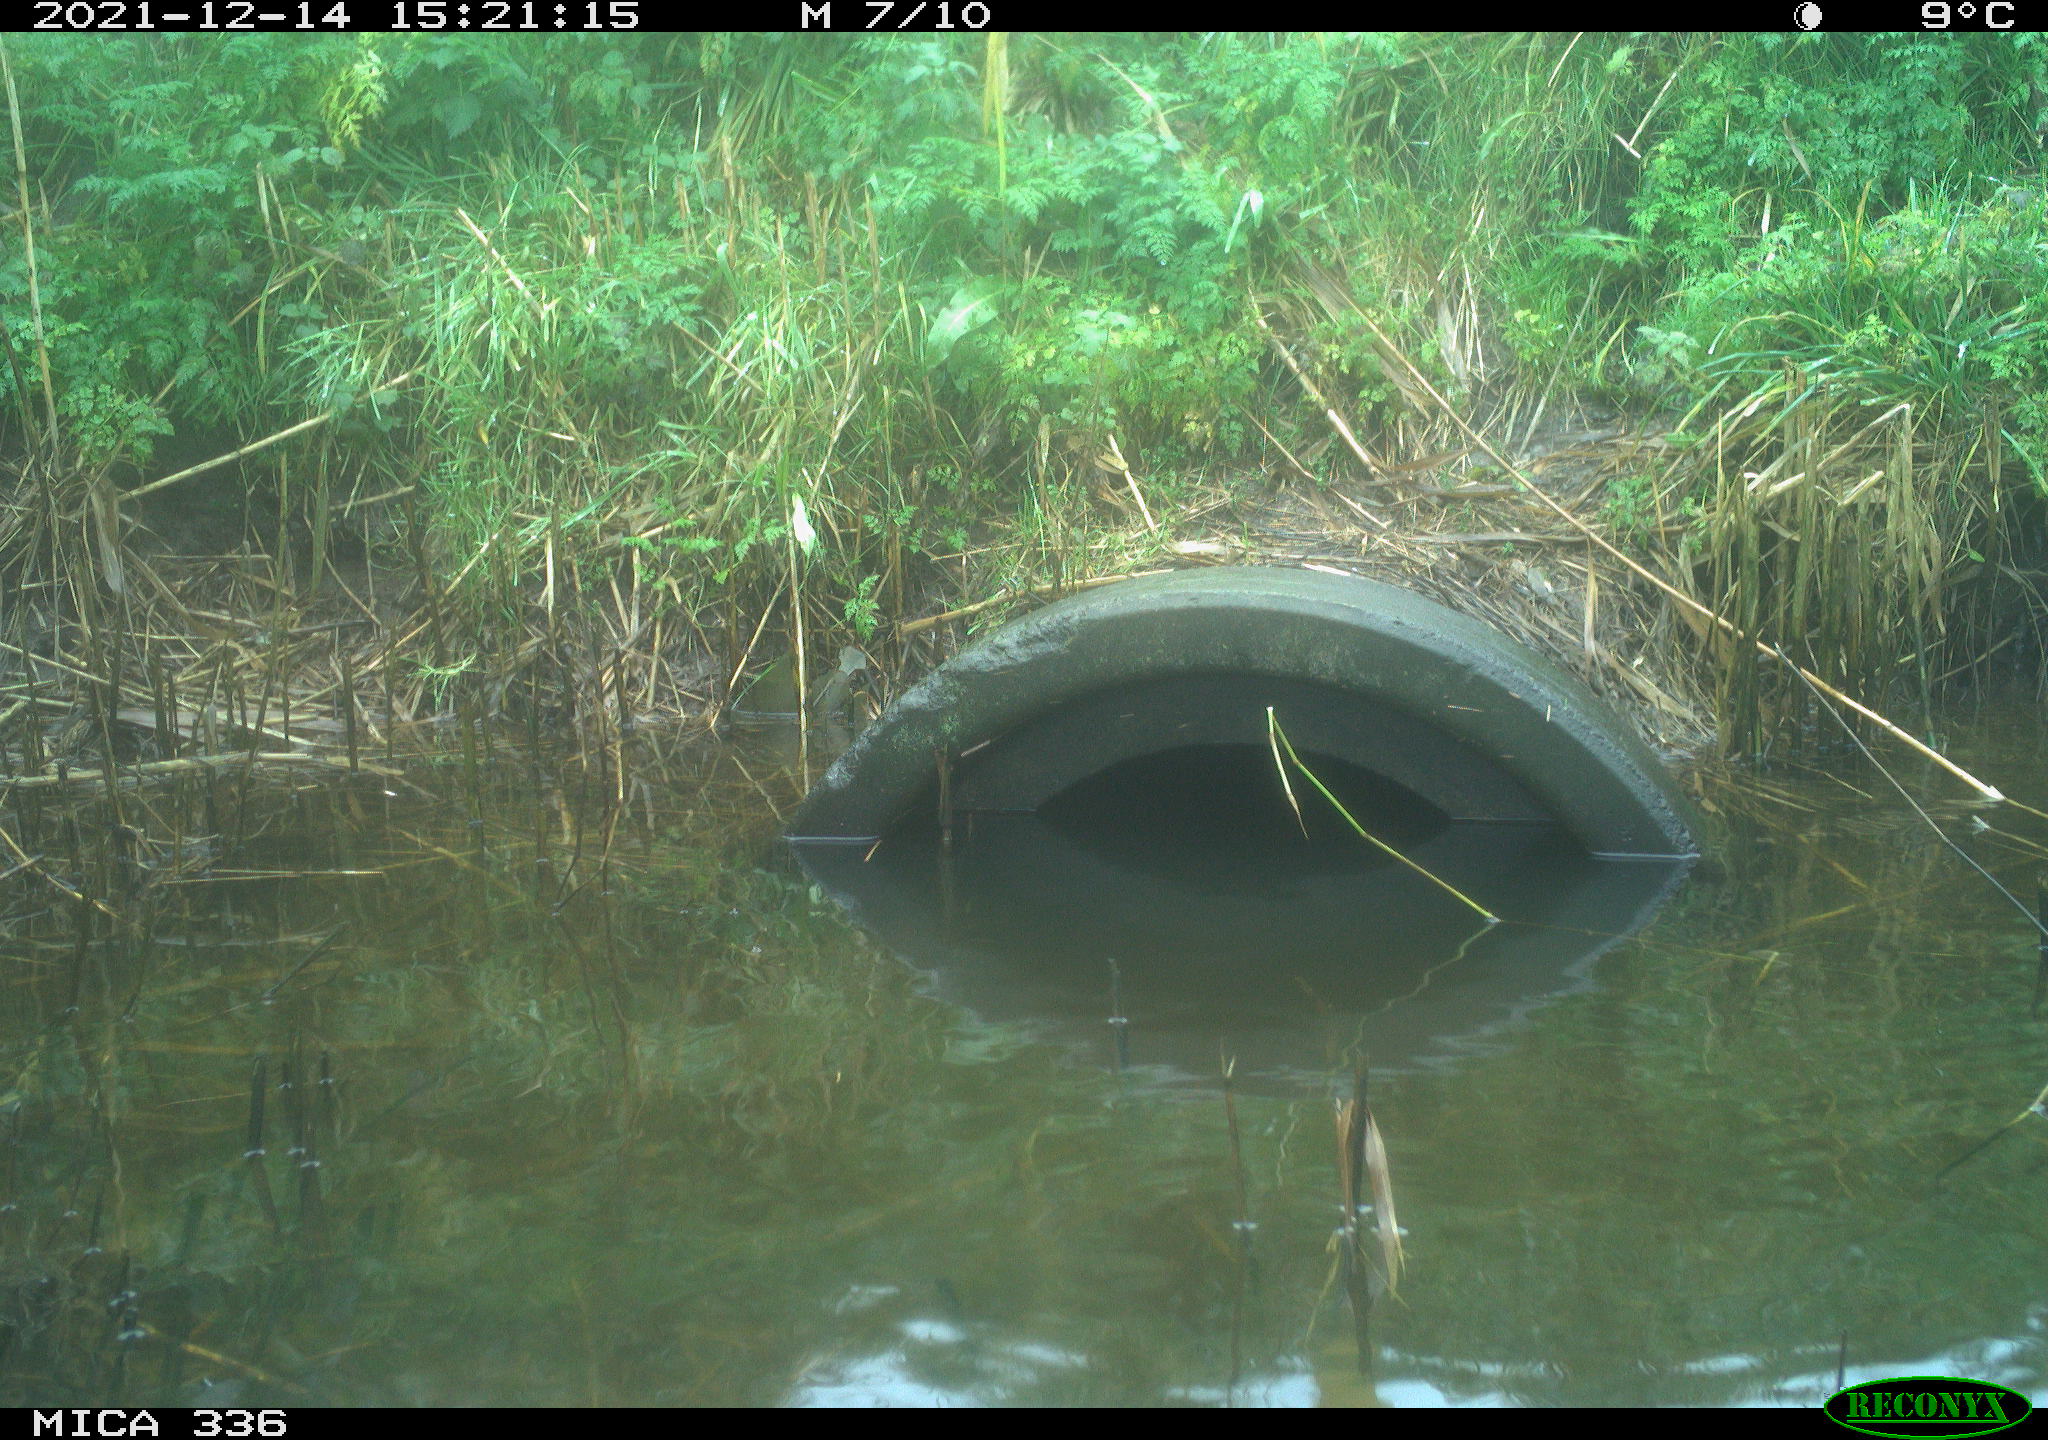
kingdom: Animalia
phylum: Chordata
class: Aves
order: Gruiformes
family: Rallidae
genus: Gallinula
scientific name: Gallinula chloropus
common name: Common moorhen
